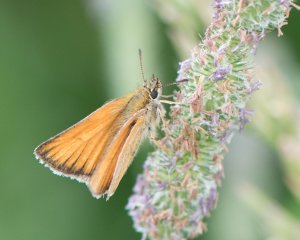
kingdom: Animalia
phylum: Arthropoda
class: Insecta
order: Lepidoptera
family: Hesperiidae
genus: Thymelicus
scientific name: Thymelicus lineola
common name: European Skipper
